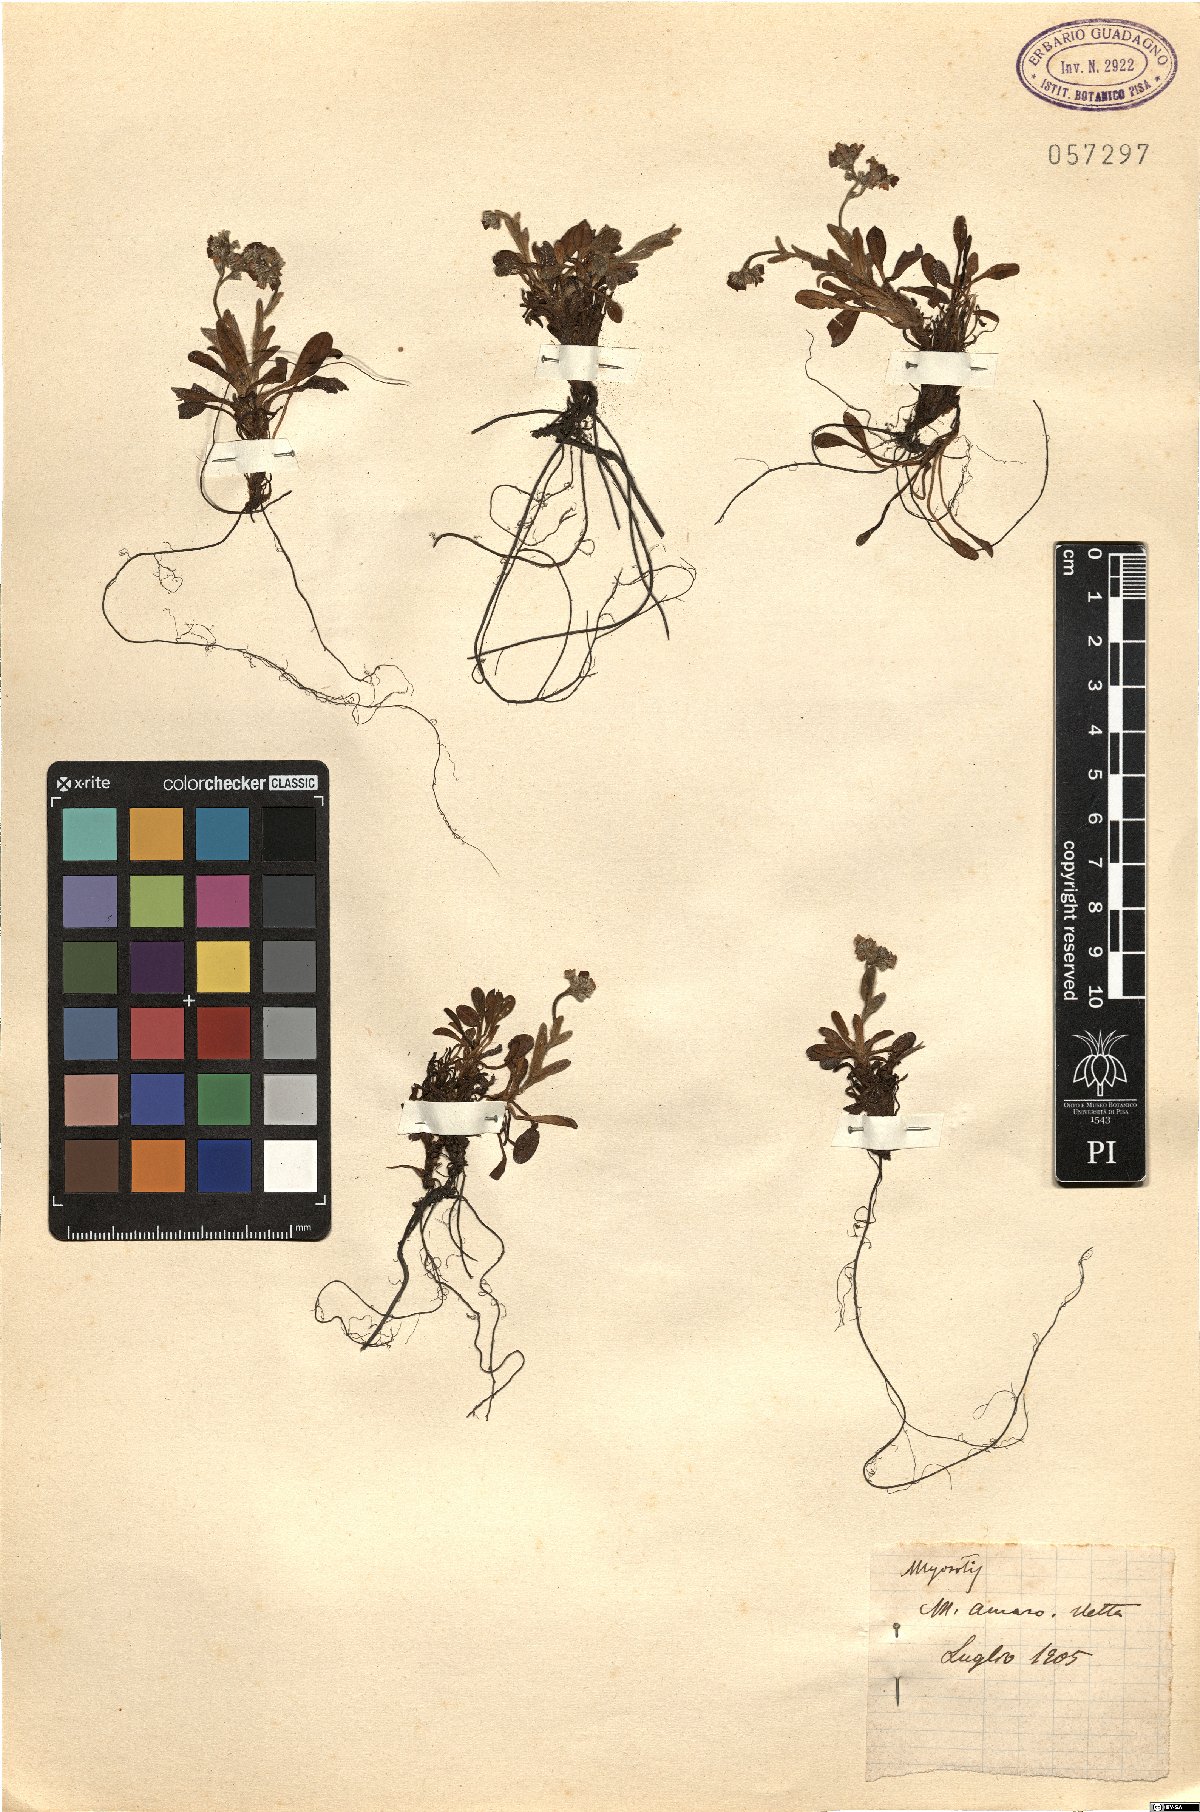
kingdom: Plantae
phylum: Tracheophyta
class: Magnoliopsida
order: Boraginales
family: Boraginaceae
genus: Myosotis
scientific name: Myosotis
